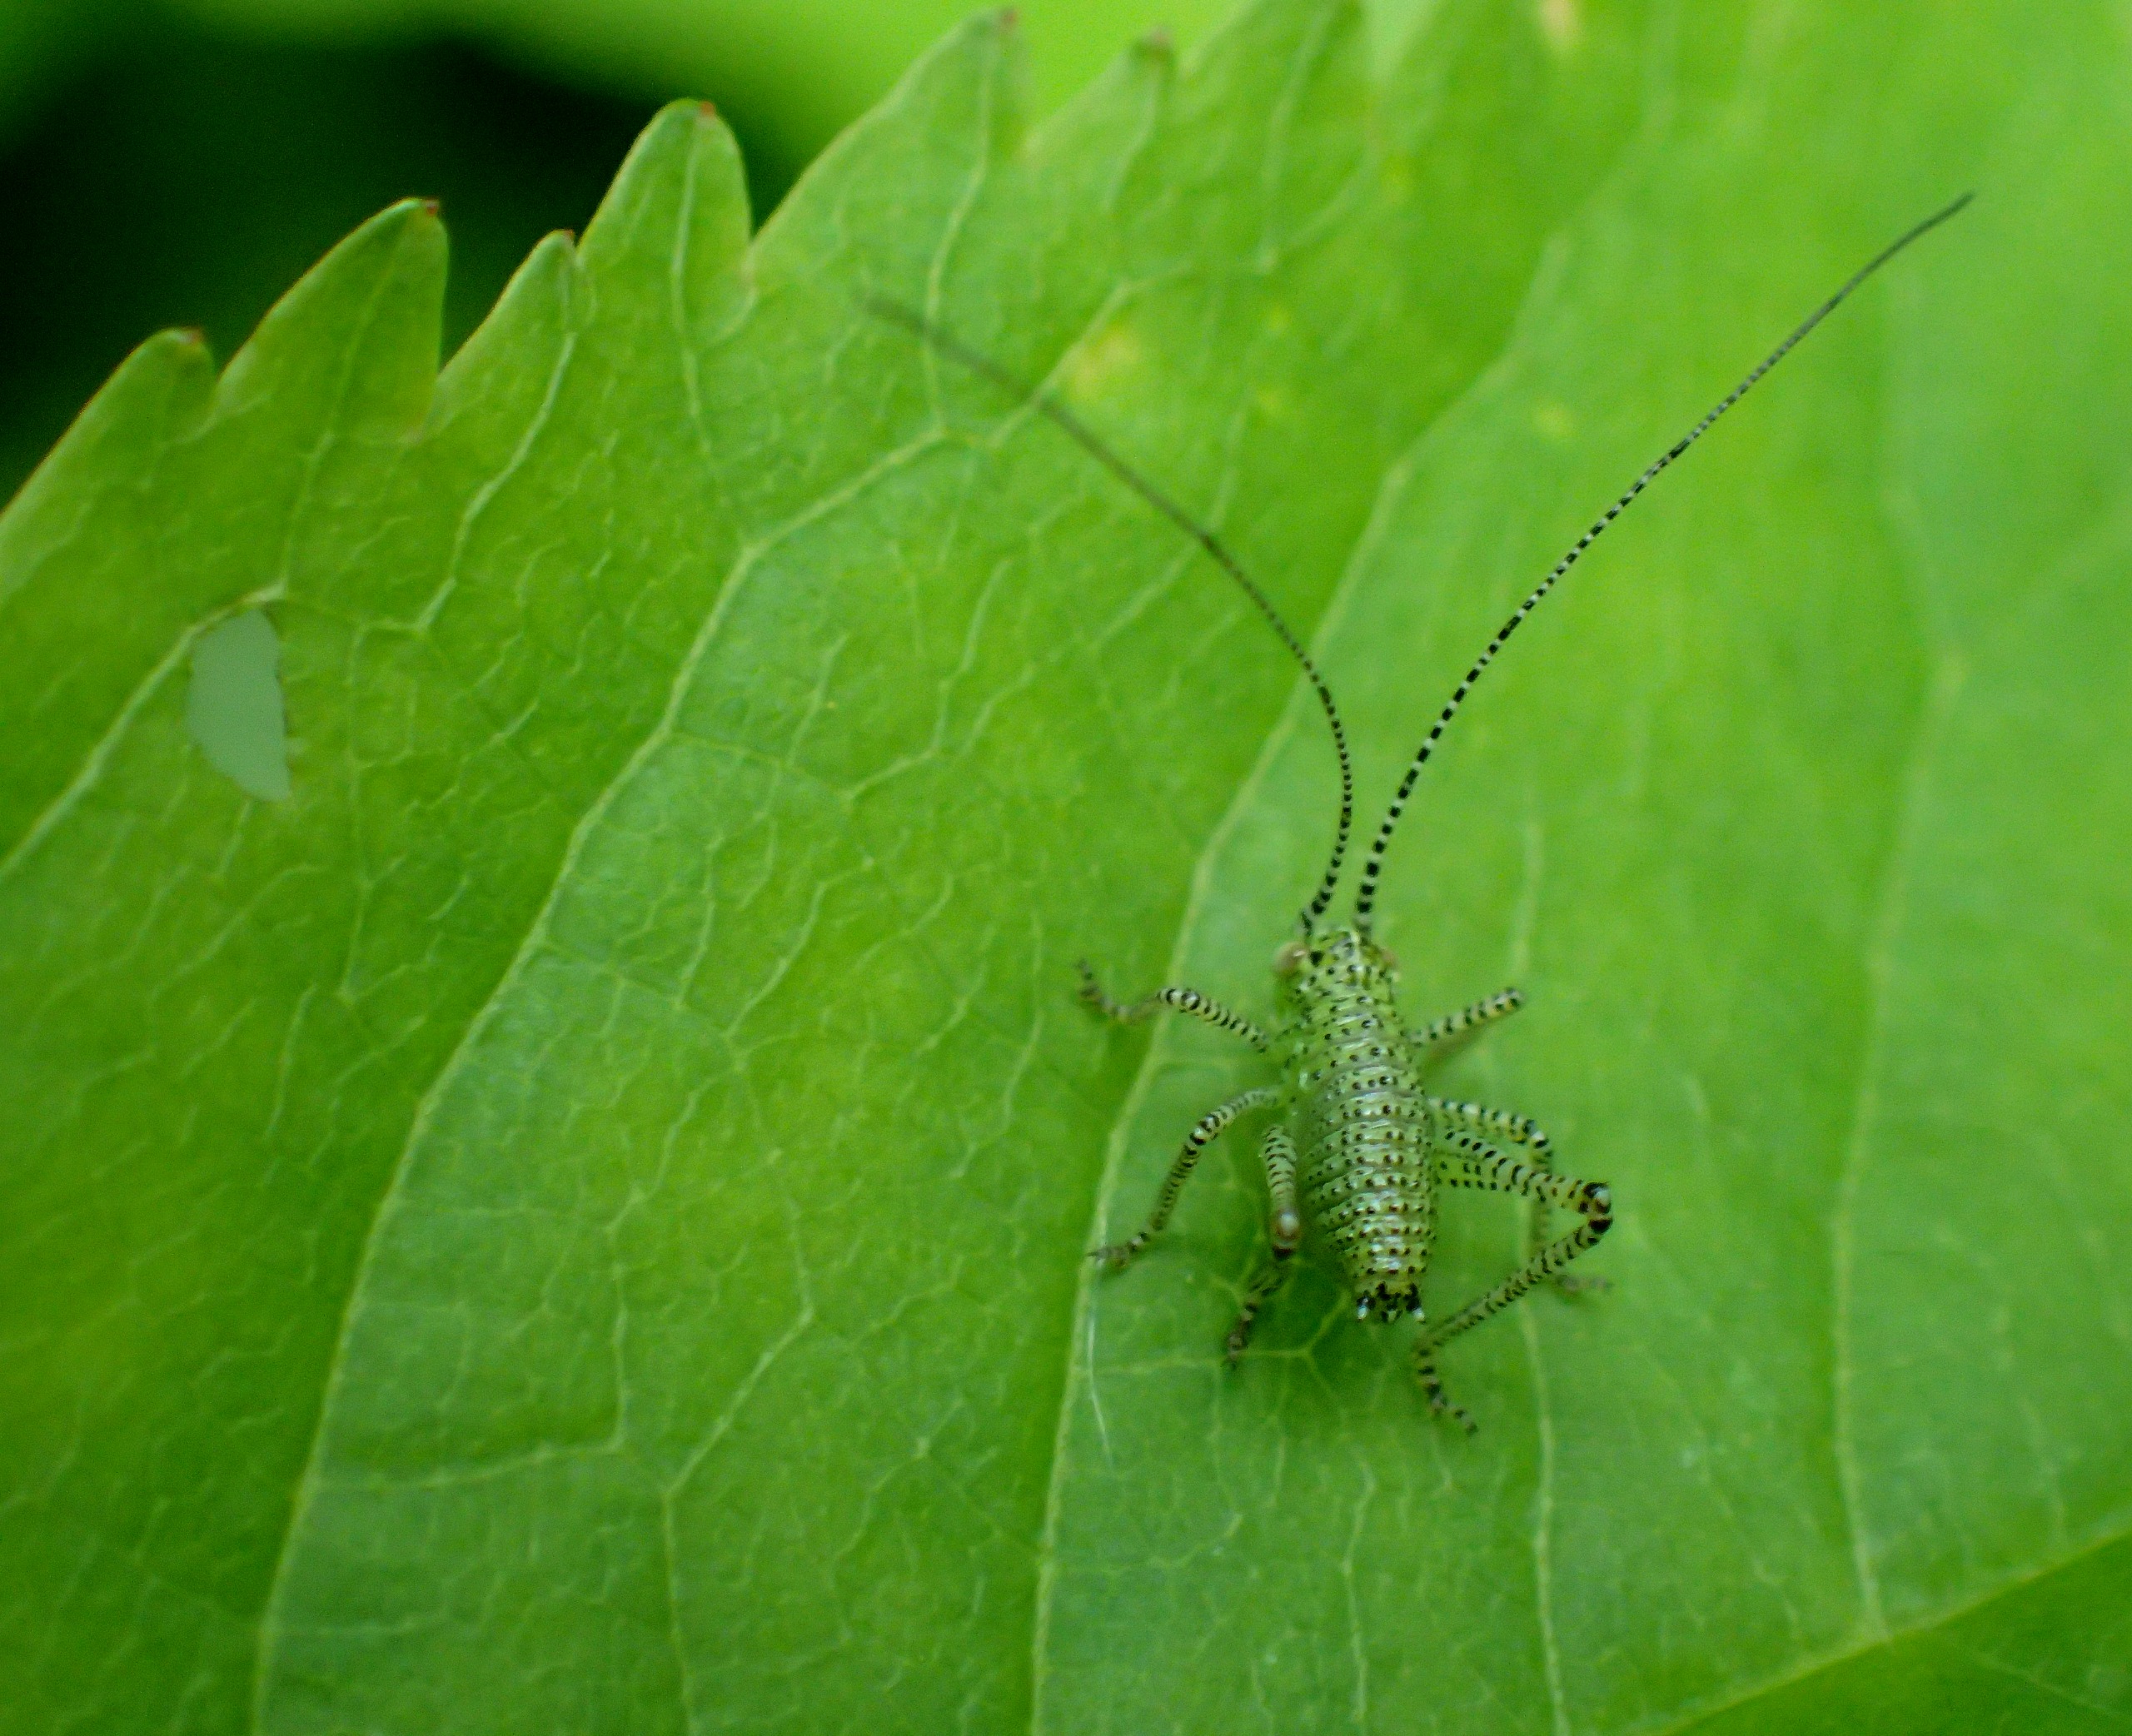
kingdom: Animalia
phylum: Arthropoda
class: Insecta
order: Orthoptera
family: Tettigoniidae
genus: Leptophyes
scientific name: Leptophyes punctatissima
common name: Krumknivgræshoppe
